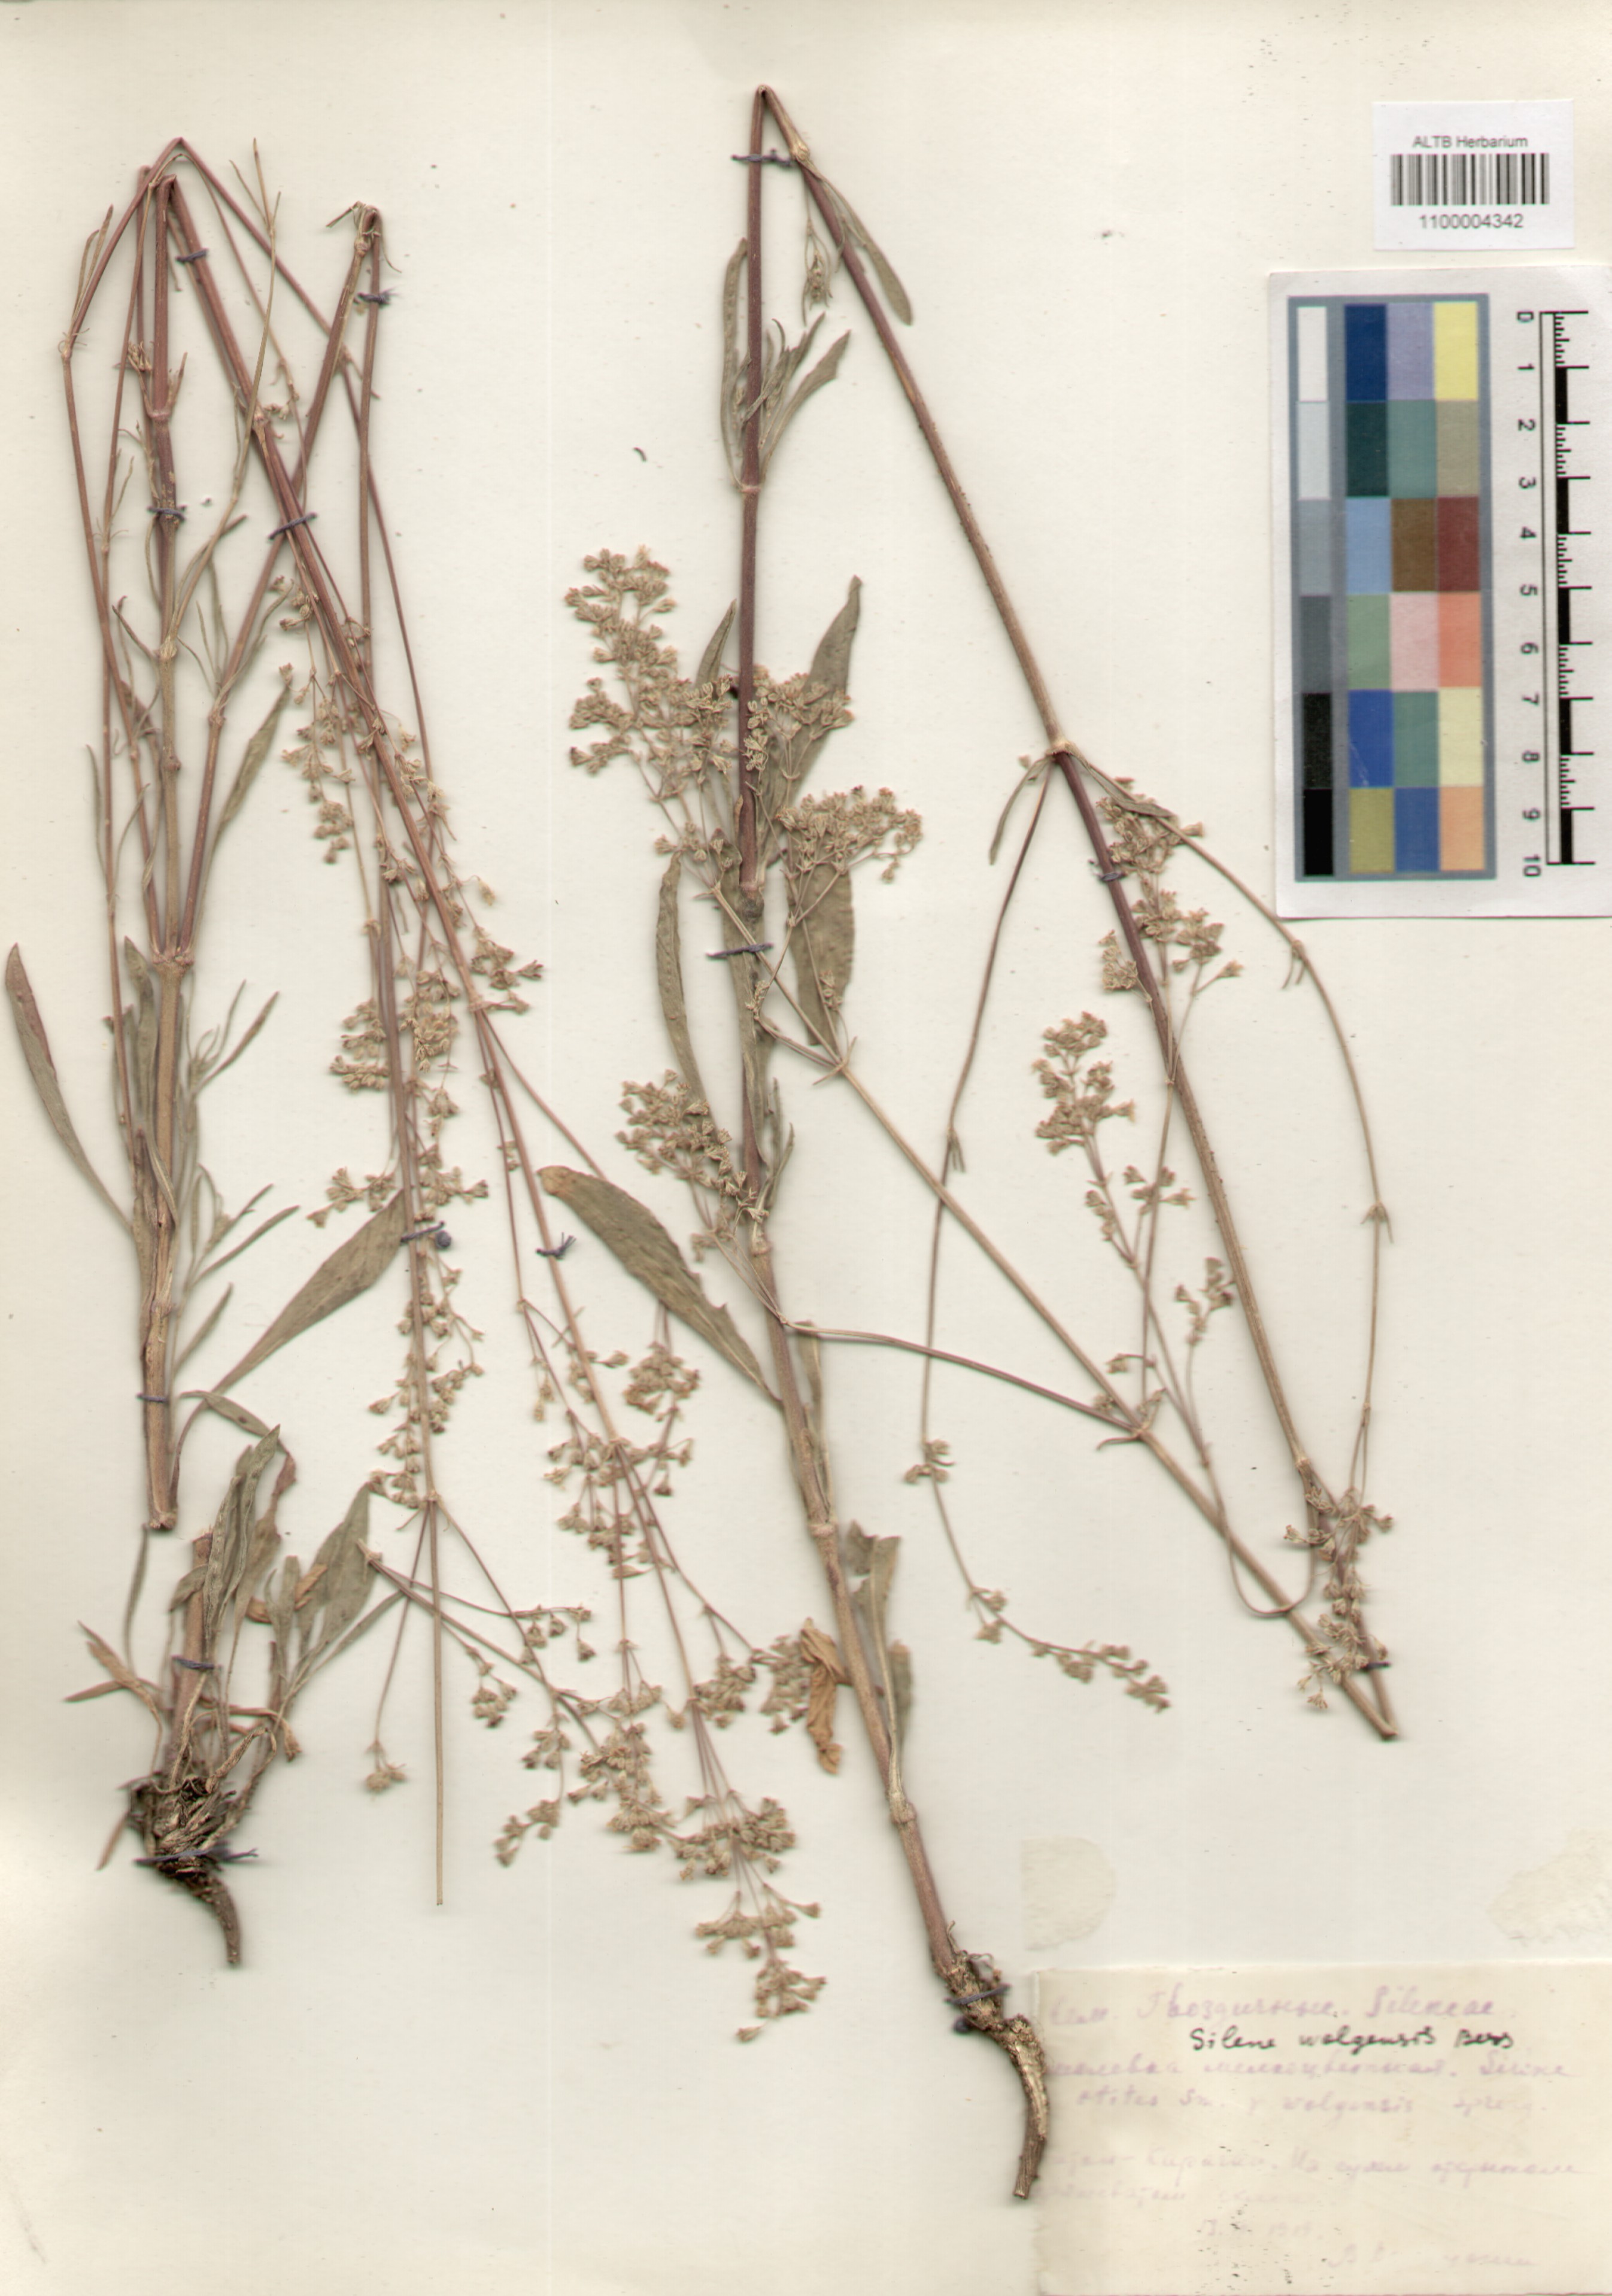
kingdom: Plantae
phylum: Tracheophyta
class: Magnoliopsida
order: Caryophyllales
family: Caryophyllaceae
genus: Silene
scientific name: Silene wolgensis
